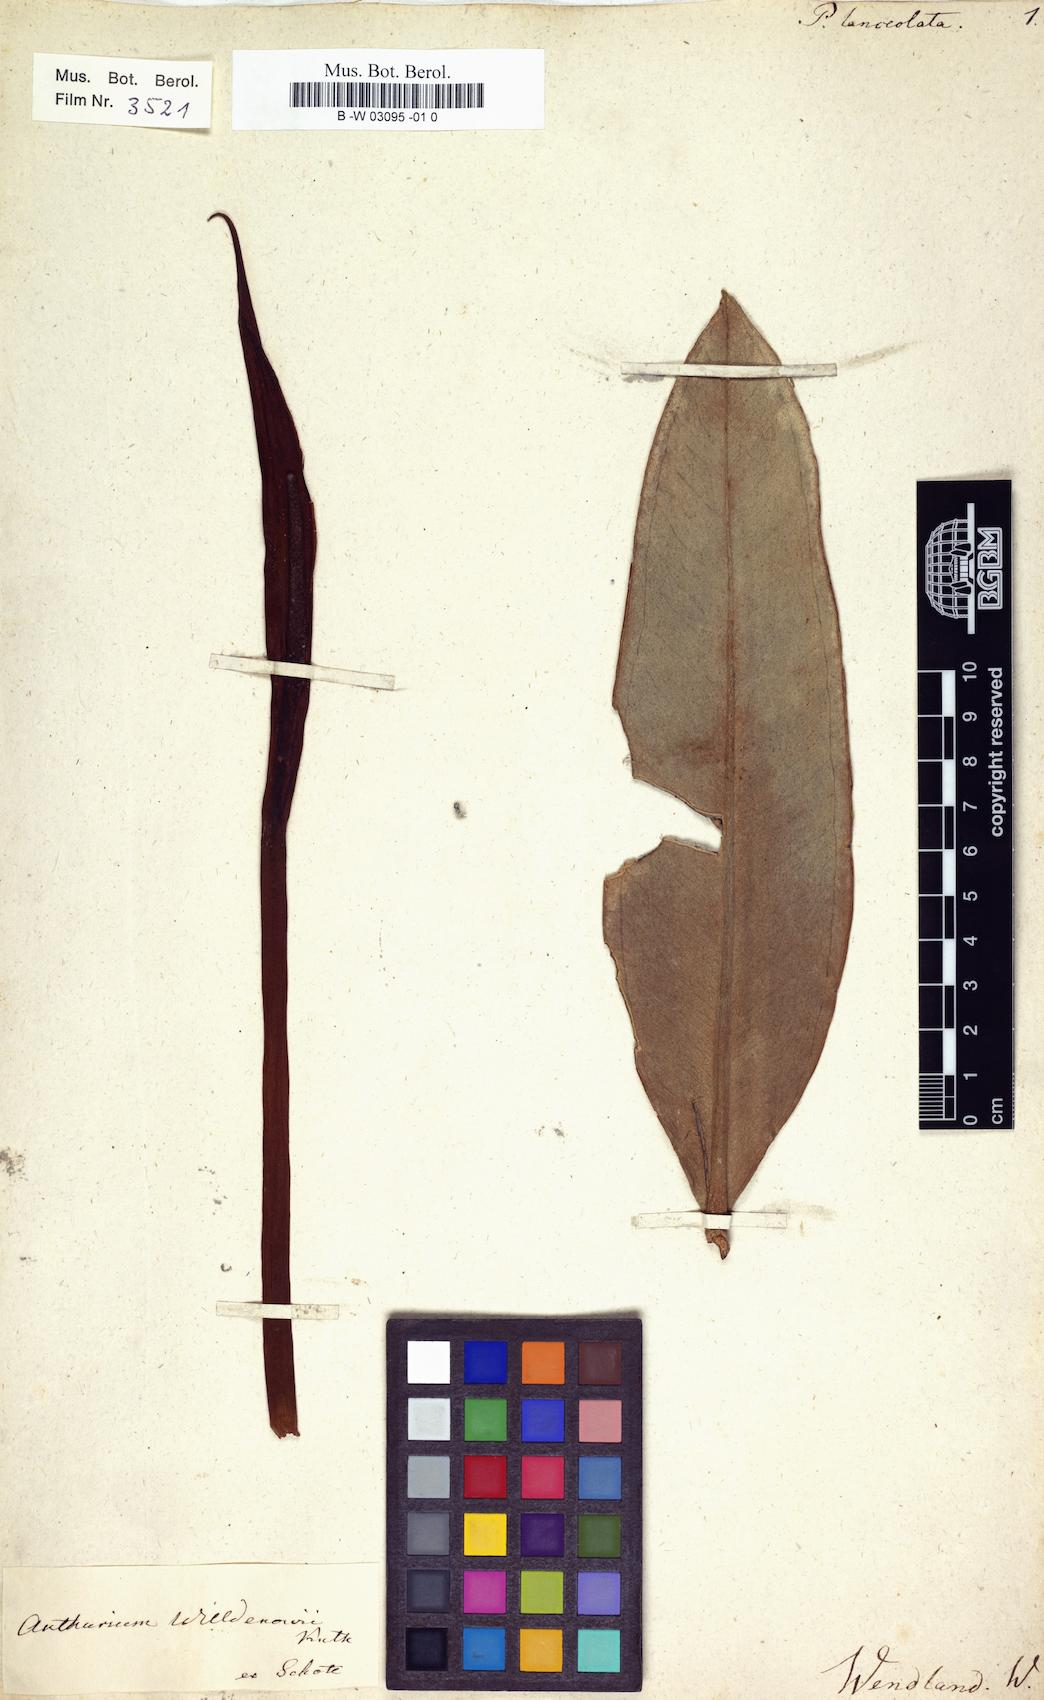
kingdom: Plantae
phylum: Tracheophyta
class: Liliopsida
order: Alismatales
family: Araceae
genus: Anthurium
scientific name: Anthurium acaule
